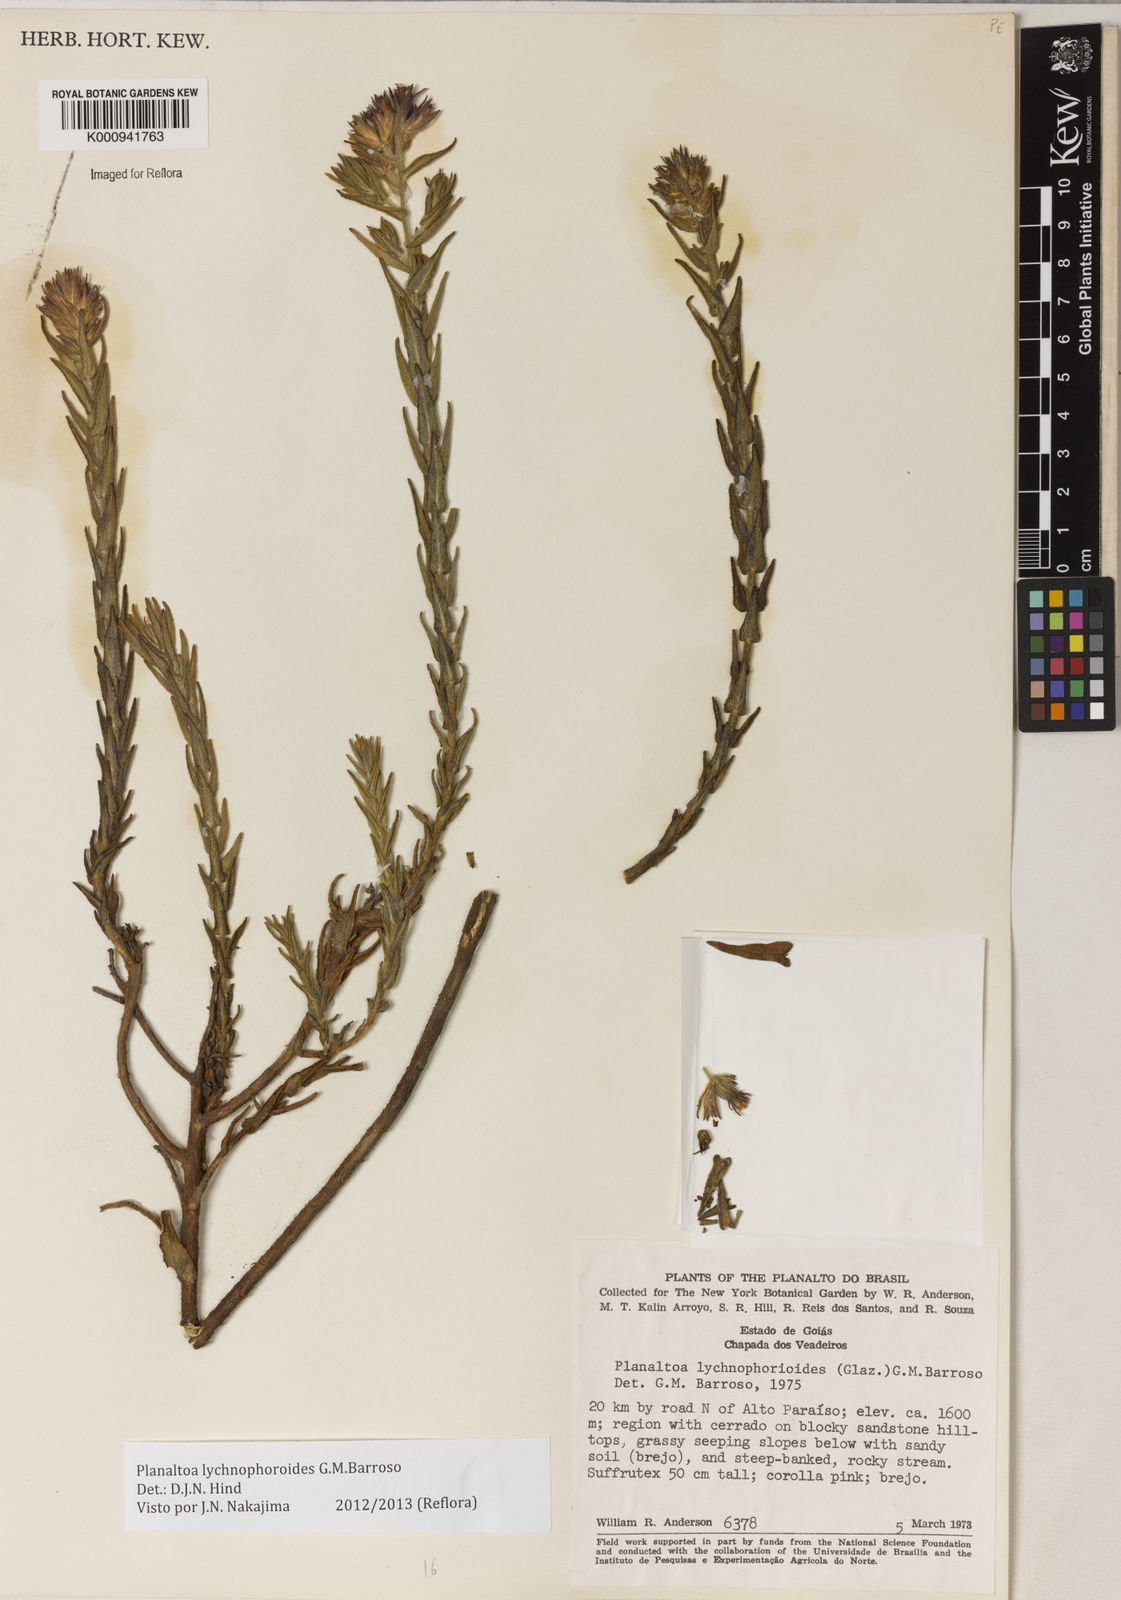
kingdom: Plantae
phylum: Tracheophyta
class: Magnoliopsida
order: Asterales
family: Asteraceae
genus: Planaltoa
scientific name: Planaltoa lychnophoroides
